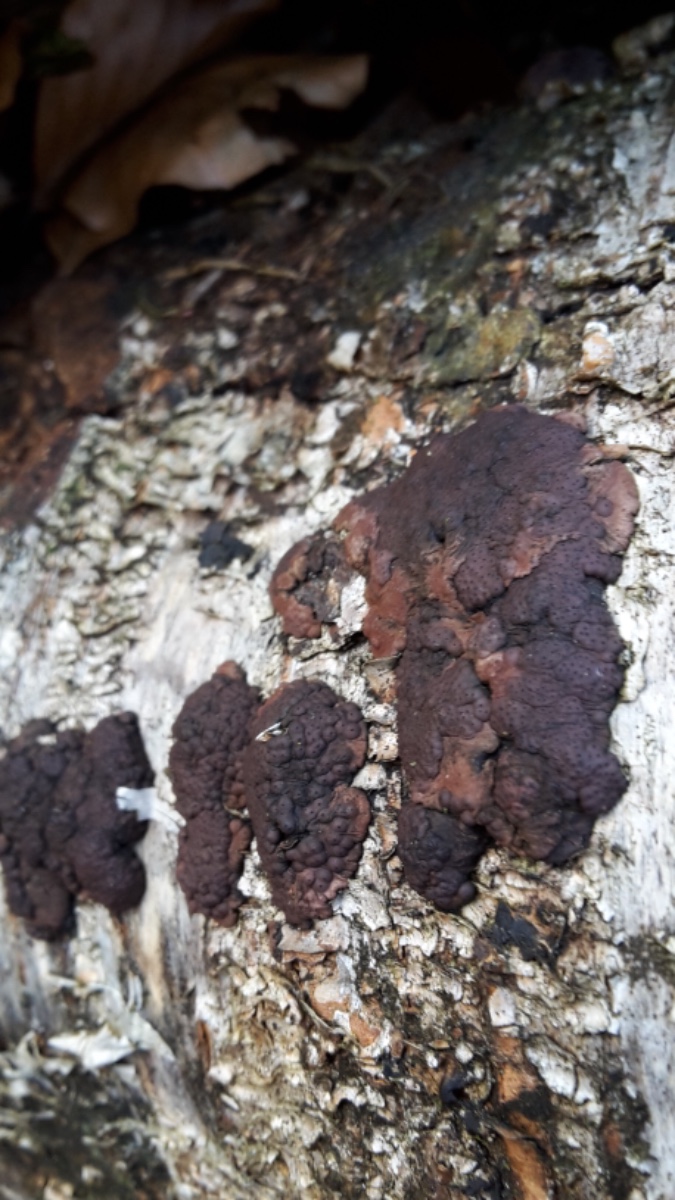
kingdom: Fungi
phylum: Ascomycota
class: Sordariomycetes
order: Xylariales
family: Hypoxylaceae
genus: Jackrogersella
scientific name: Jackrogersella multiformis
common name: foranderlig kulbær
